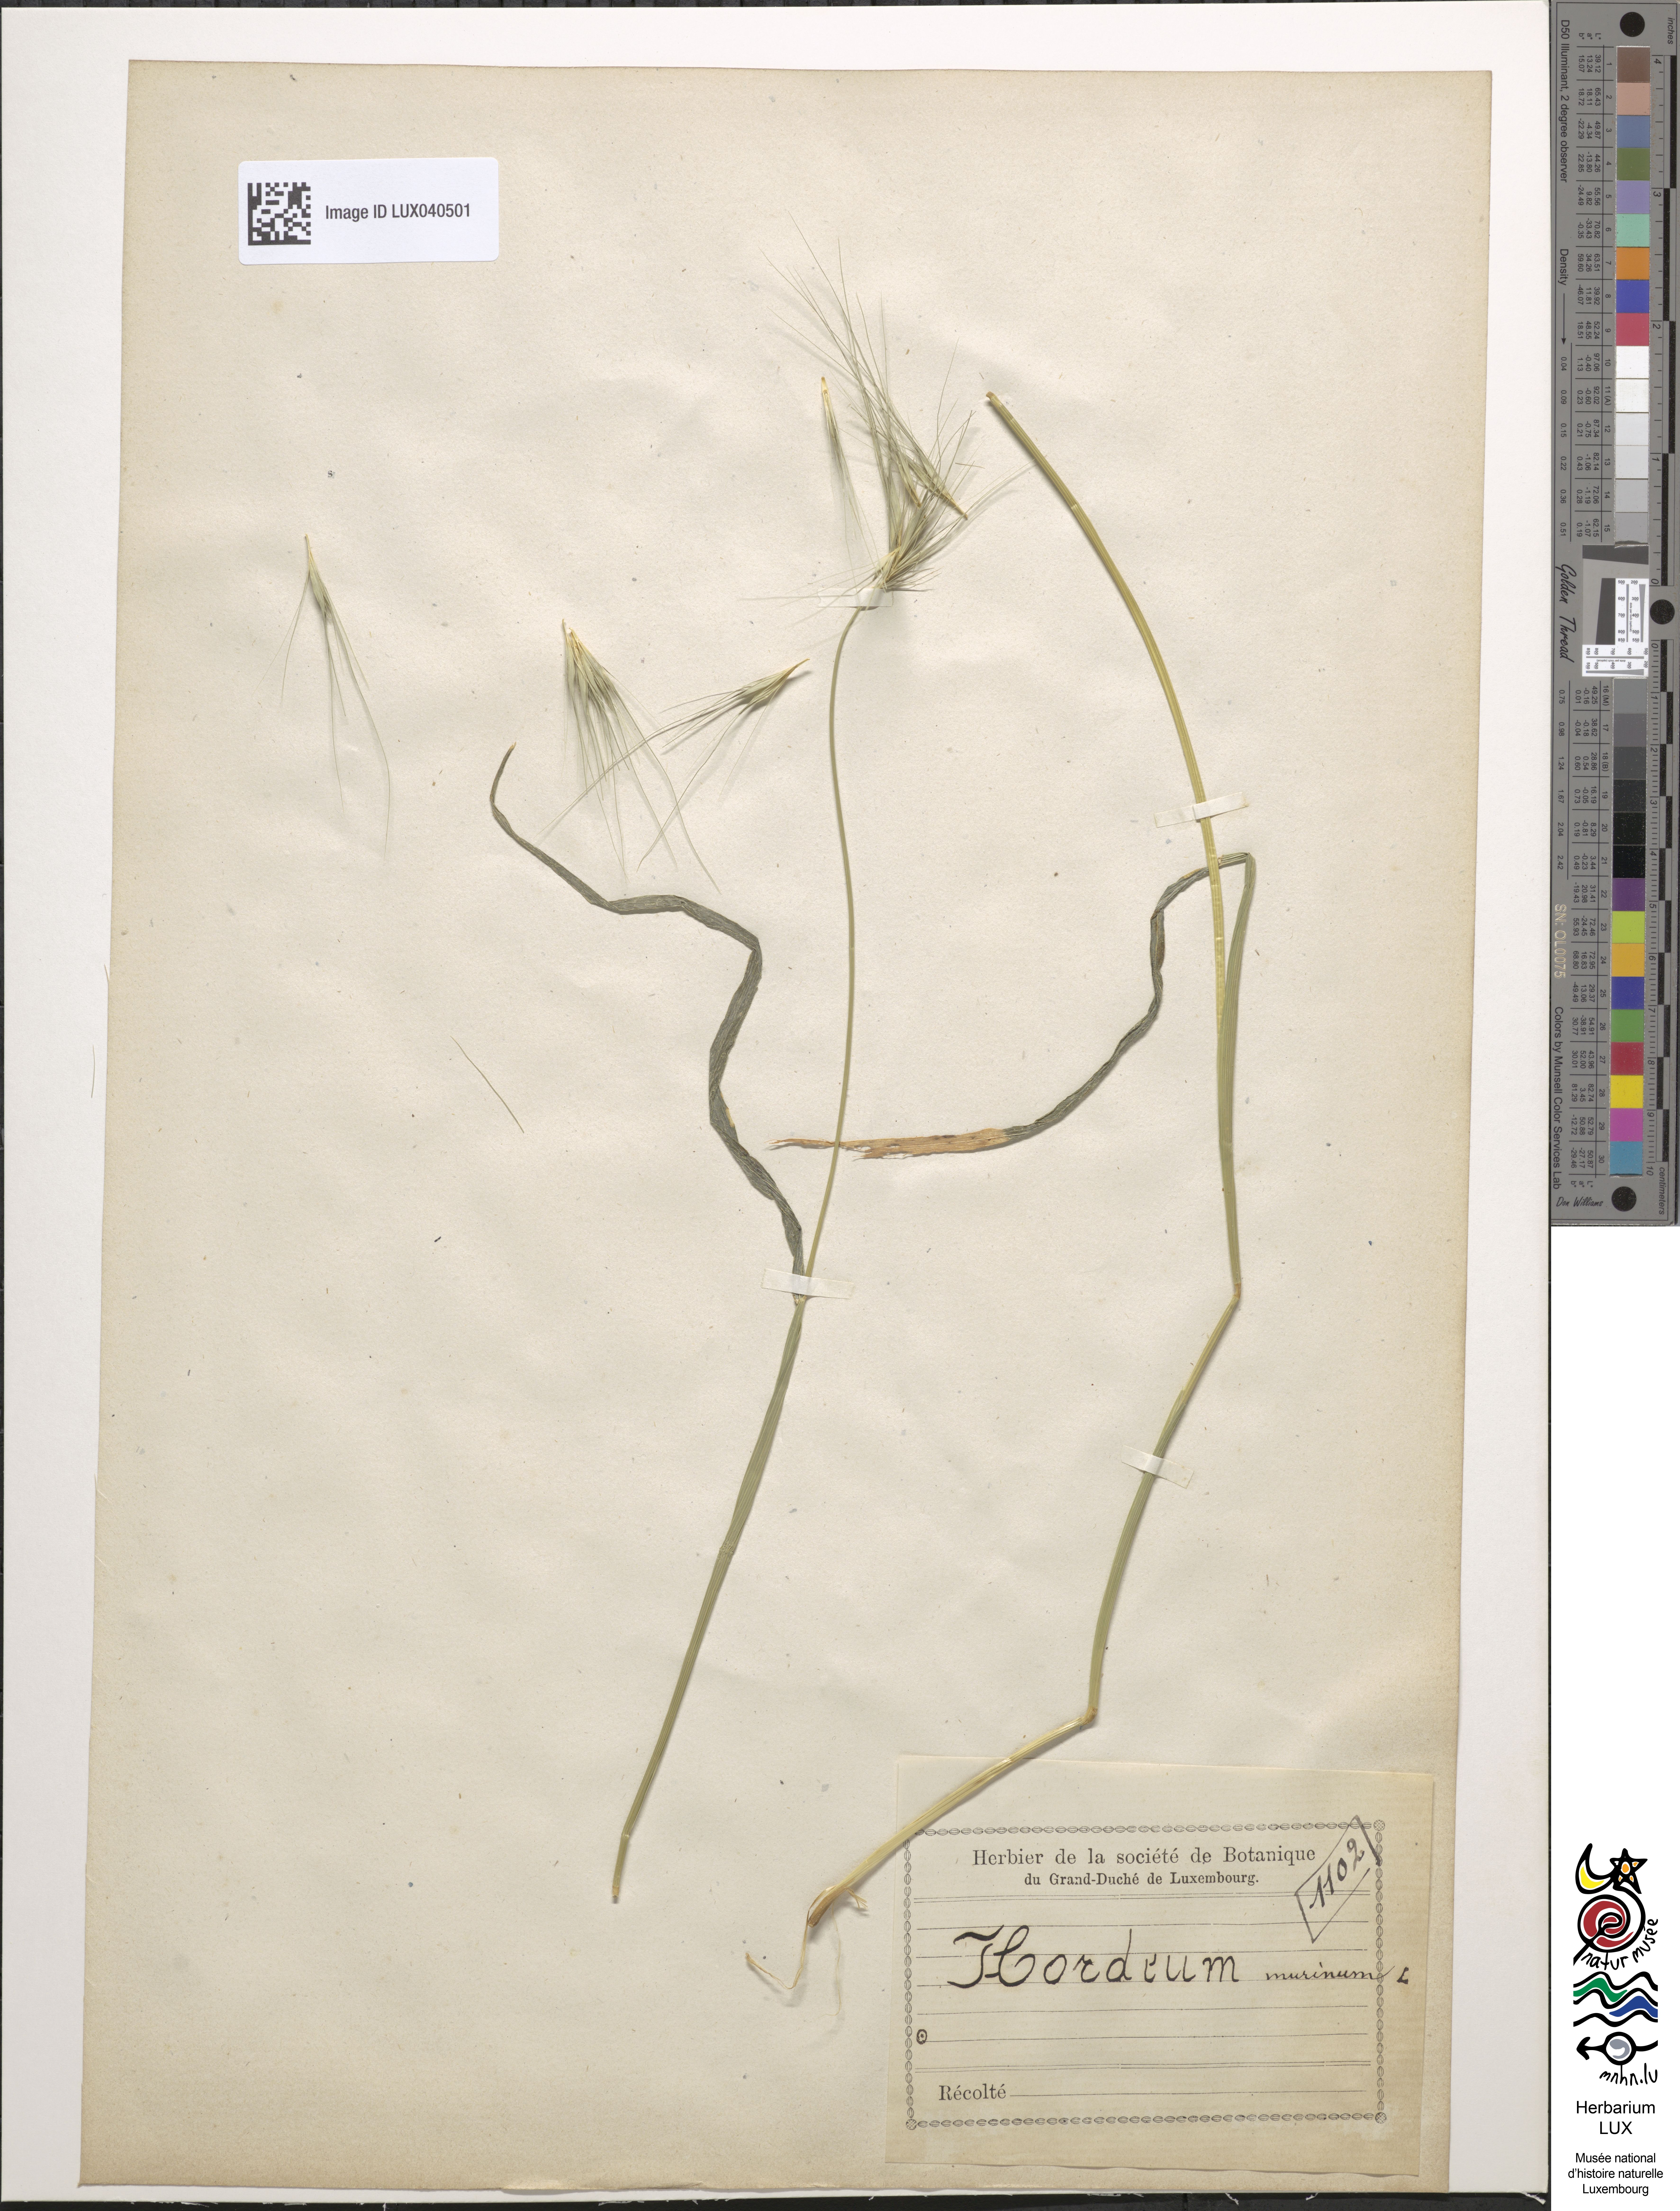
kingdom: Plantae
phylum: Tracheophyta
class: Liliopsida
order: Poales
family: Poaceae
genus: Hordeum
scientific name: Hordeum murinum
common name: Wall barley
